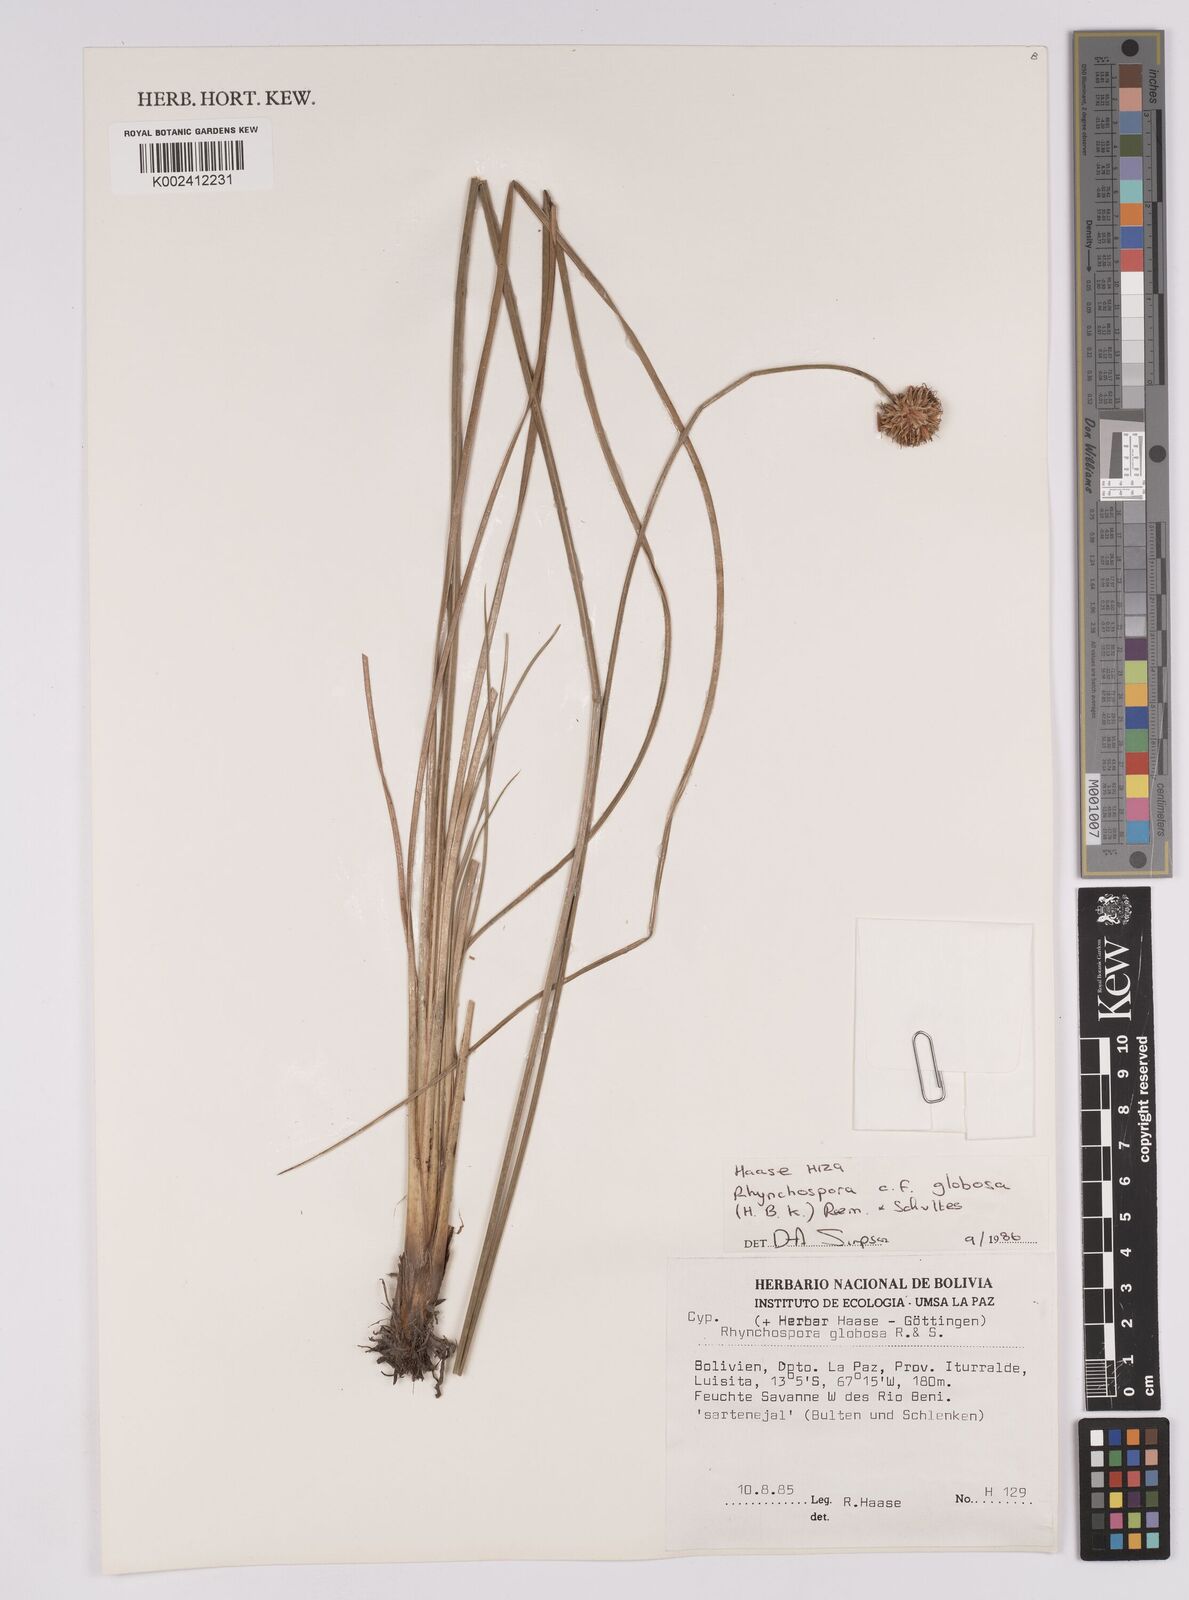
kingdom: Plantae
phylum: Tracheophyta
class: Liliopsida
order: Poales
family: Cyperaceae
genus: Rhynchospora
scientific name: Rhynchospora globosa
